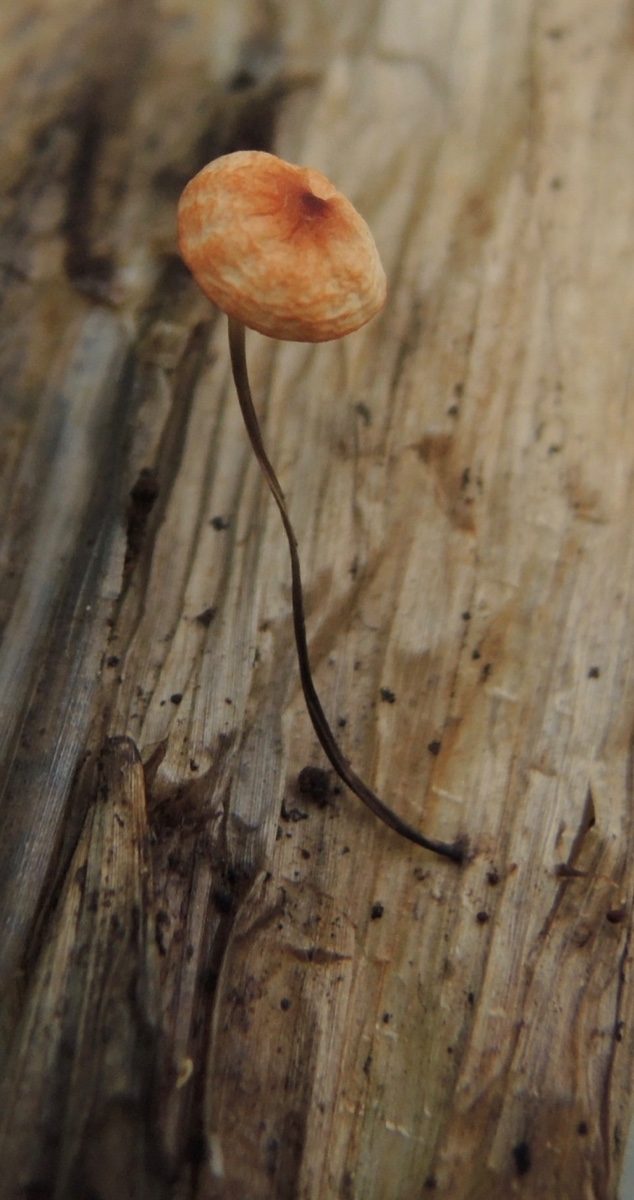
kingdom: Fungi
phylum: Basidiomycota
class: Agaricomycetes
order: Agaricales
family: Marasmiaceae
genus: Marasmius
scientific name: Marasmius curreyi
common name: teglrød bruskhat
